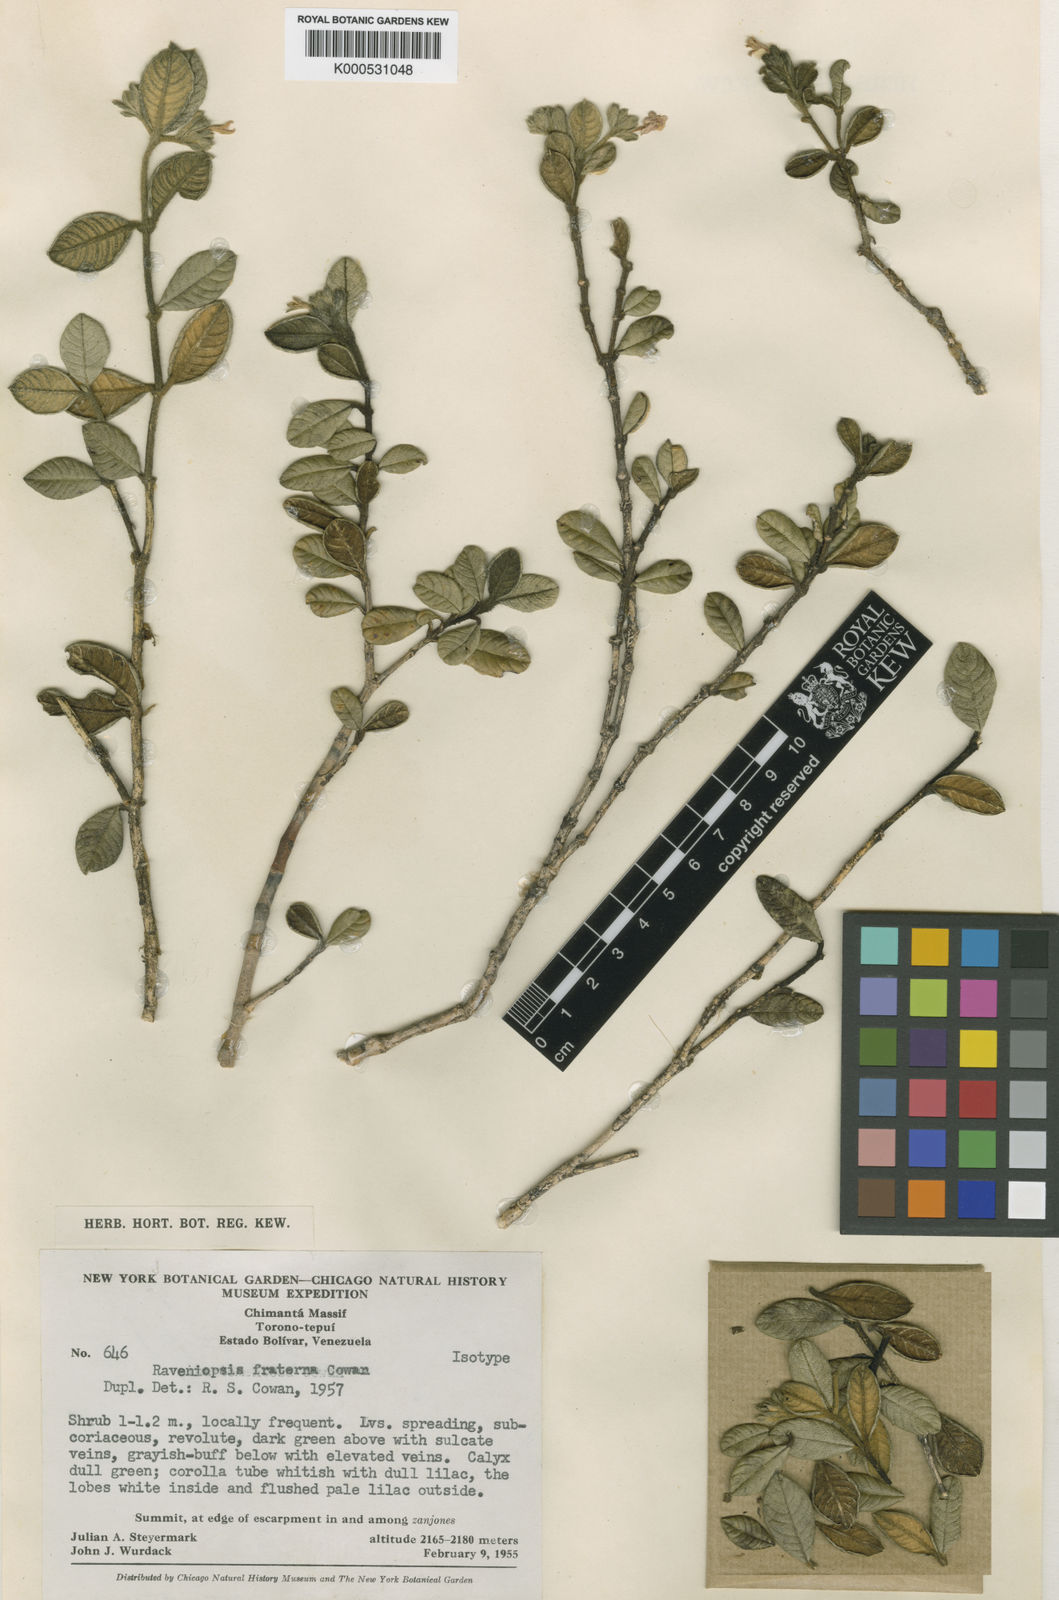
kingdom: Plantae
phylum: Tracheophyta
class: Magnoliopsida
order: Sapindales
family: Rutaceae
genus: Raveniopsis
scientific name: Raveniopsis fraterna
